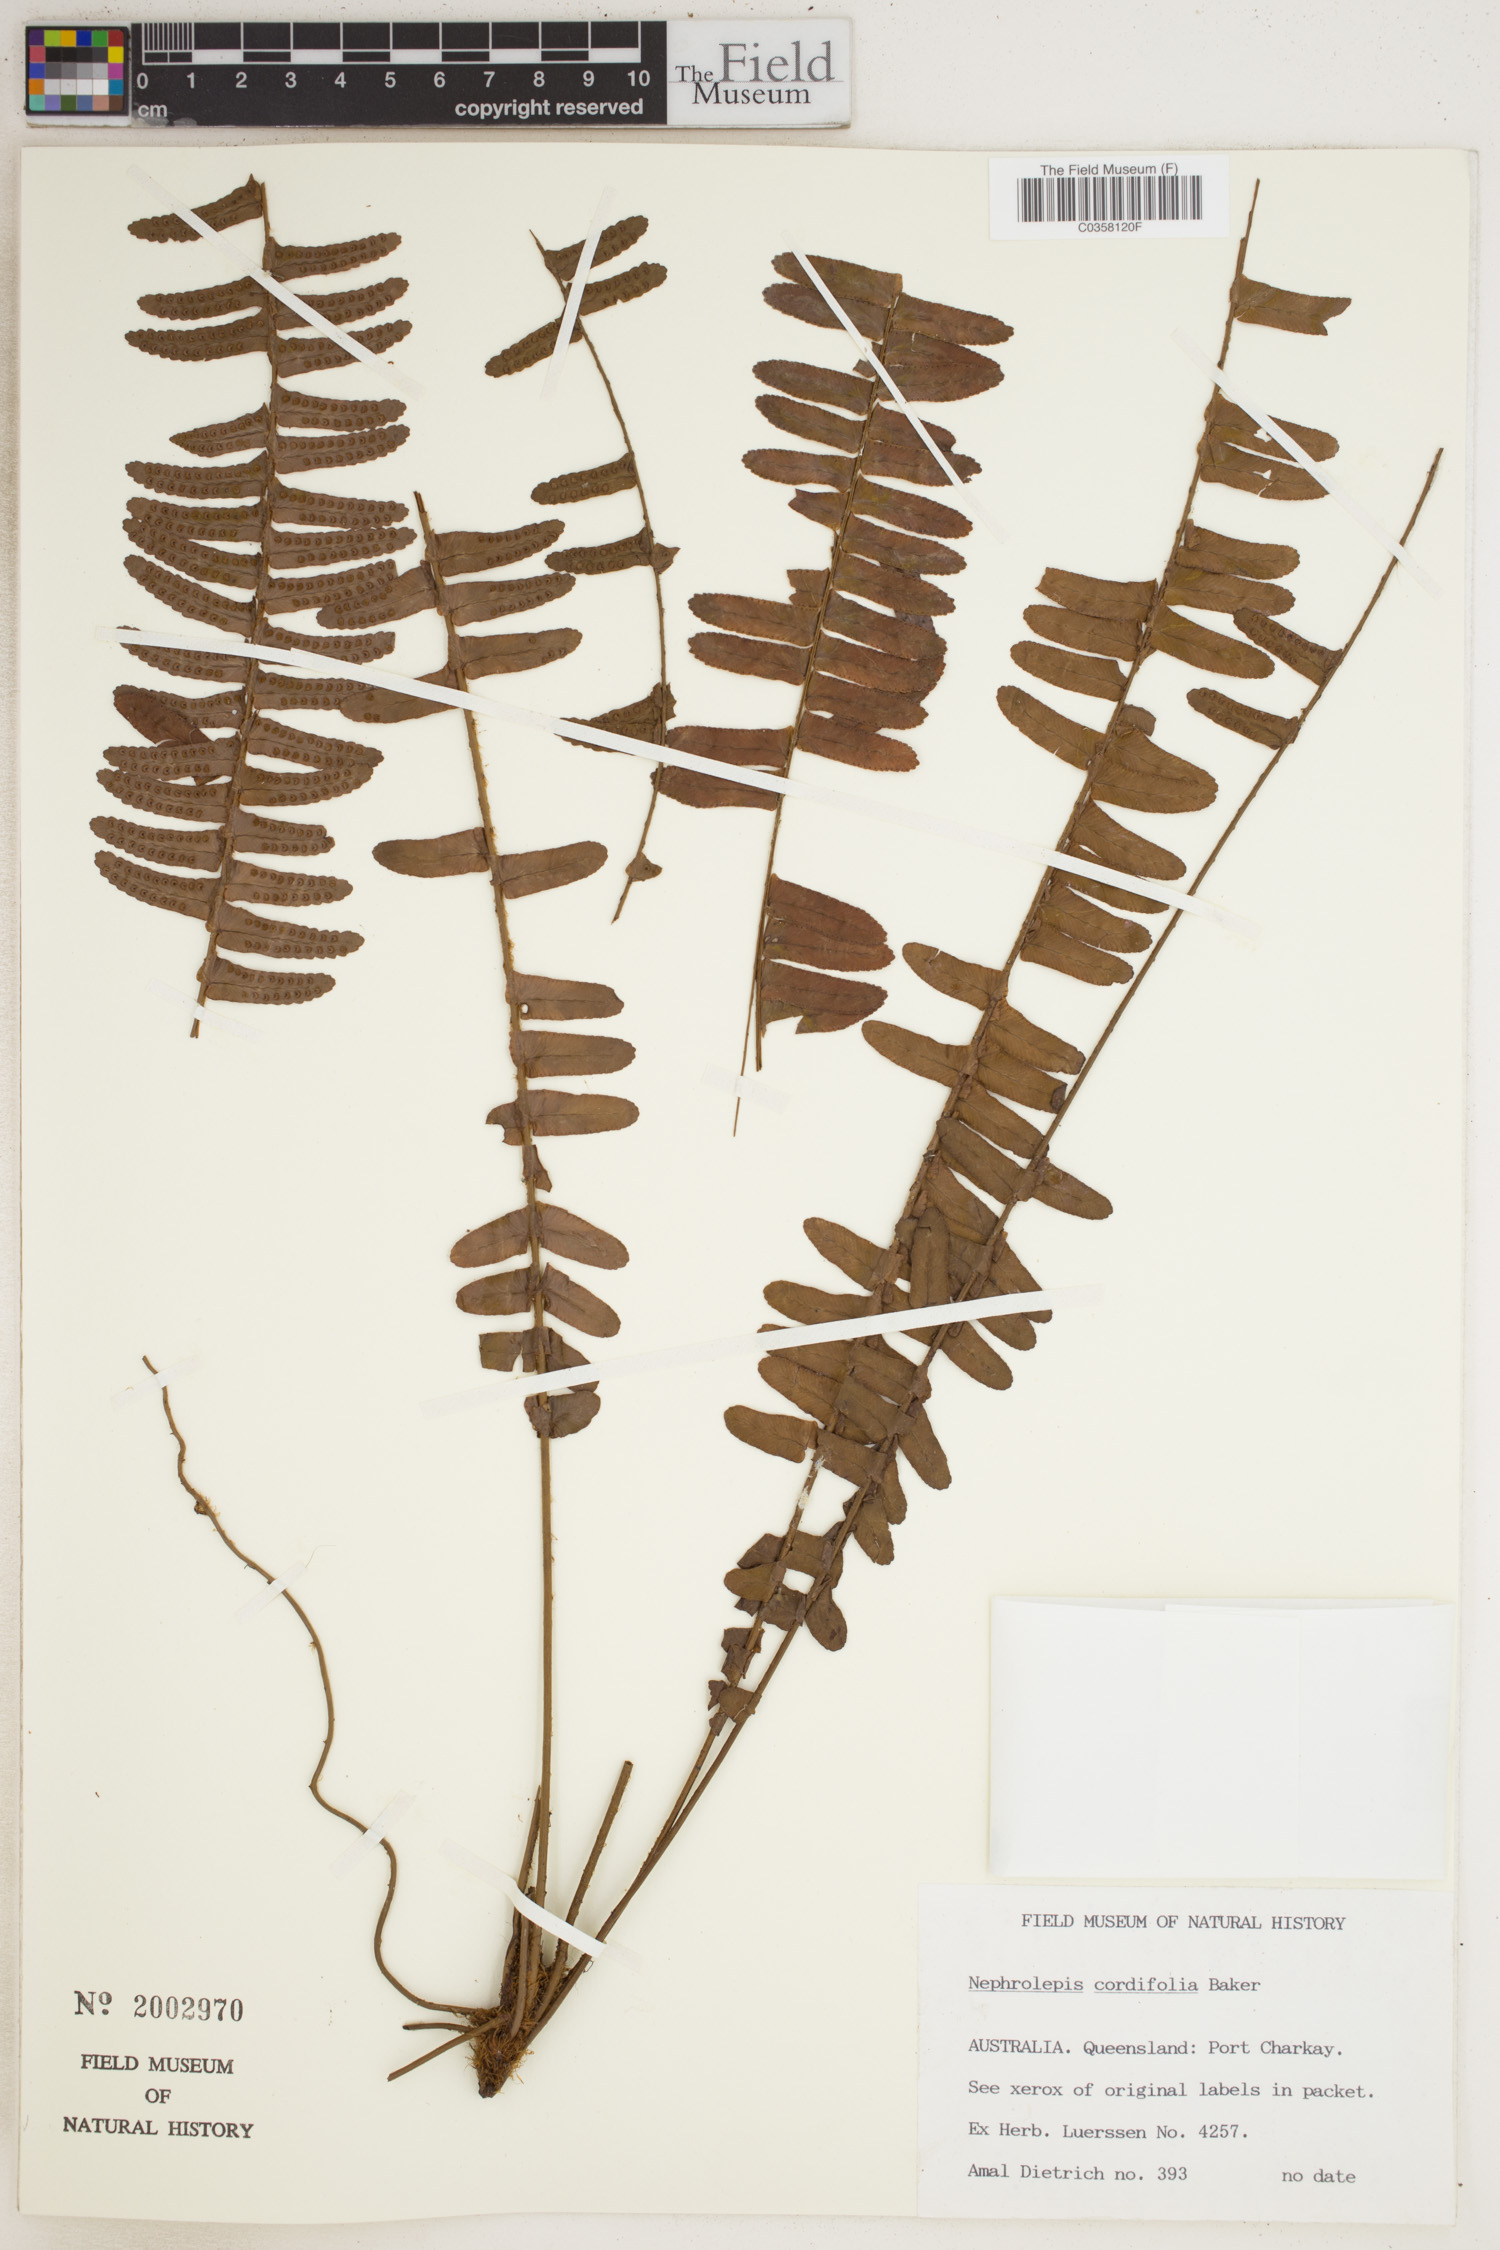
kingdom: Plantae
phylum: Tracheophyta
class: Polypodiopsida
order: Polypodiales
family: Nephrolepidaceae
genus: Nephrolepis
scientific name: Nephrolepis cordifolia
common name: Narrow swordfern
